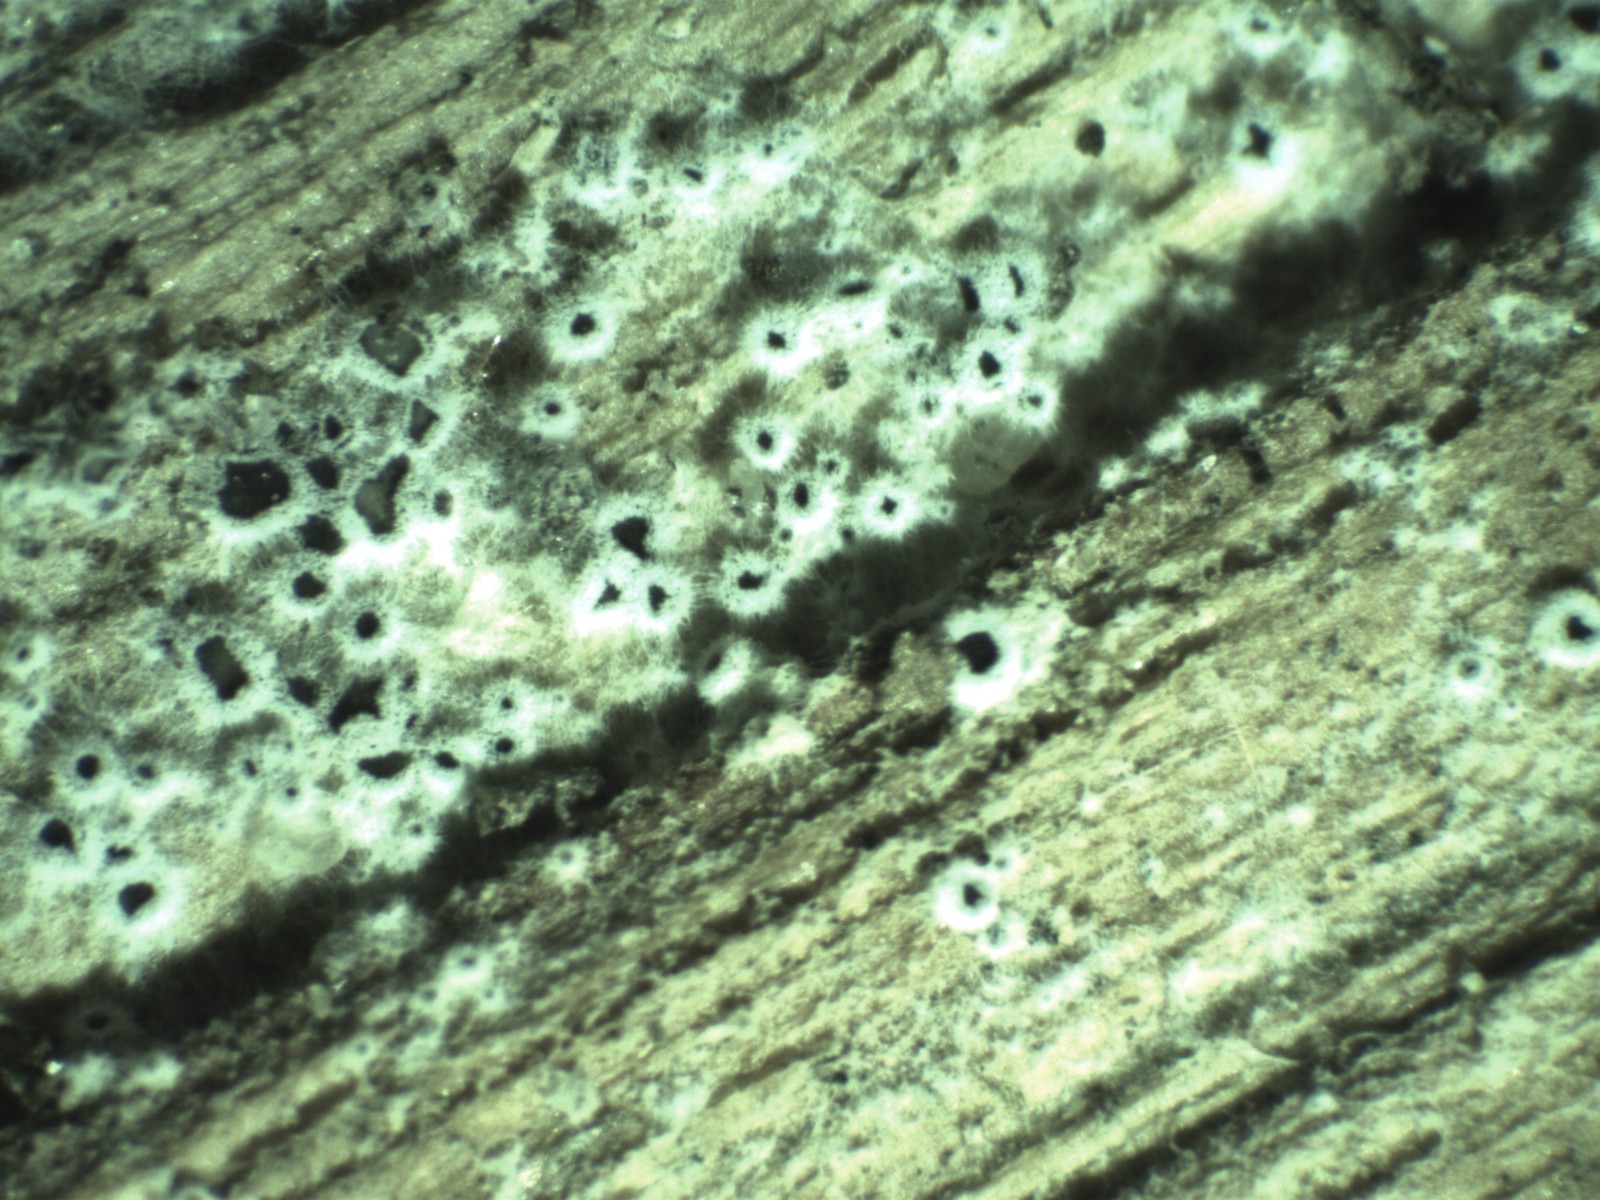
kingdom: Fungi
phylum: Ascomycota
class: Leotiomycetes
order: Helotiales
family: Arachnopezizaceae
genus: Eriopezia
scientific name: Eriopezia caesia
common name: ege-spindskive
